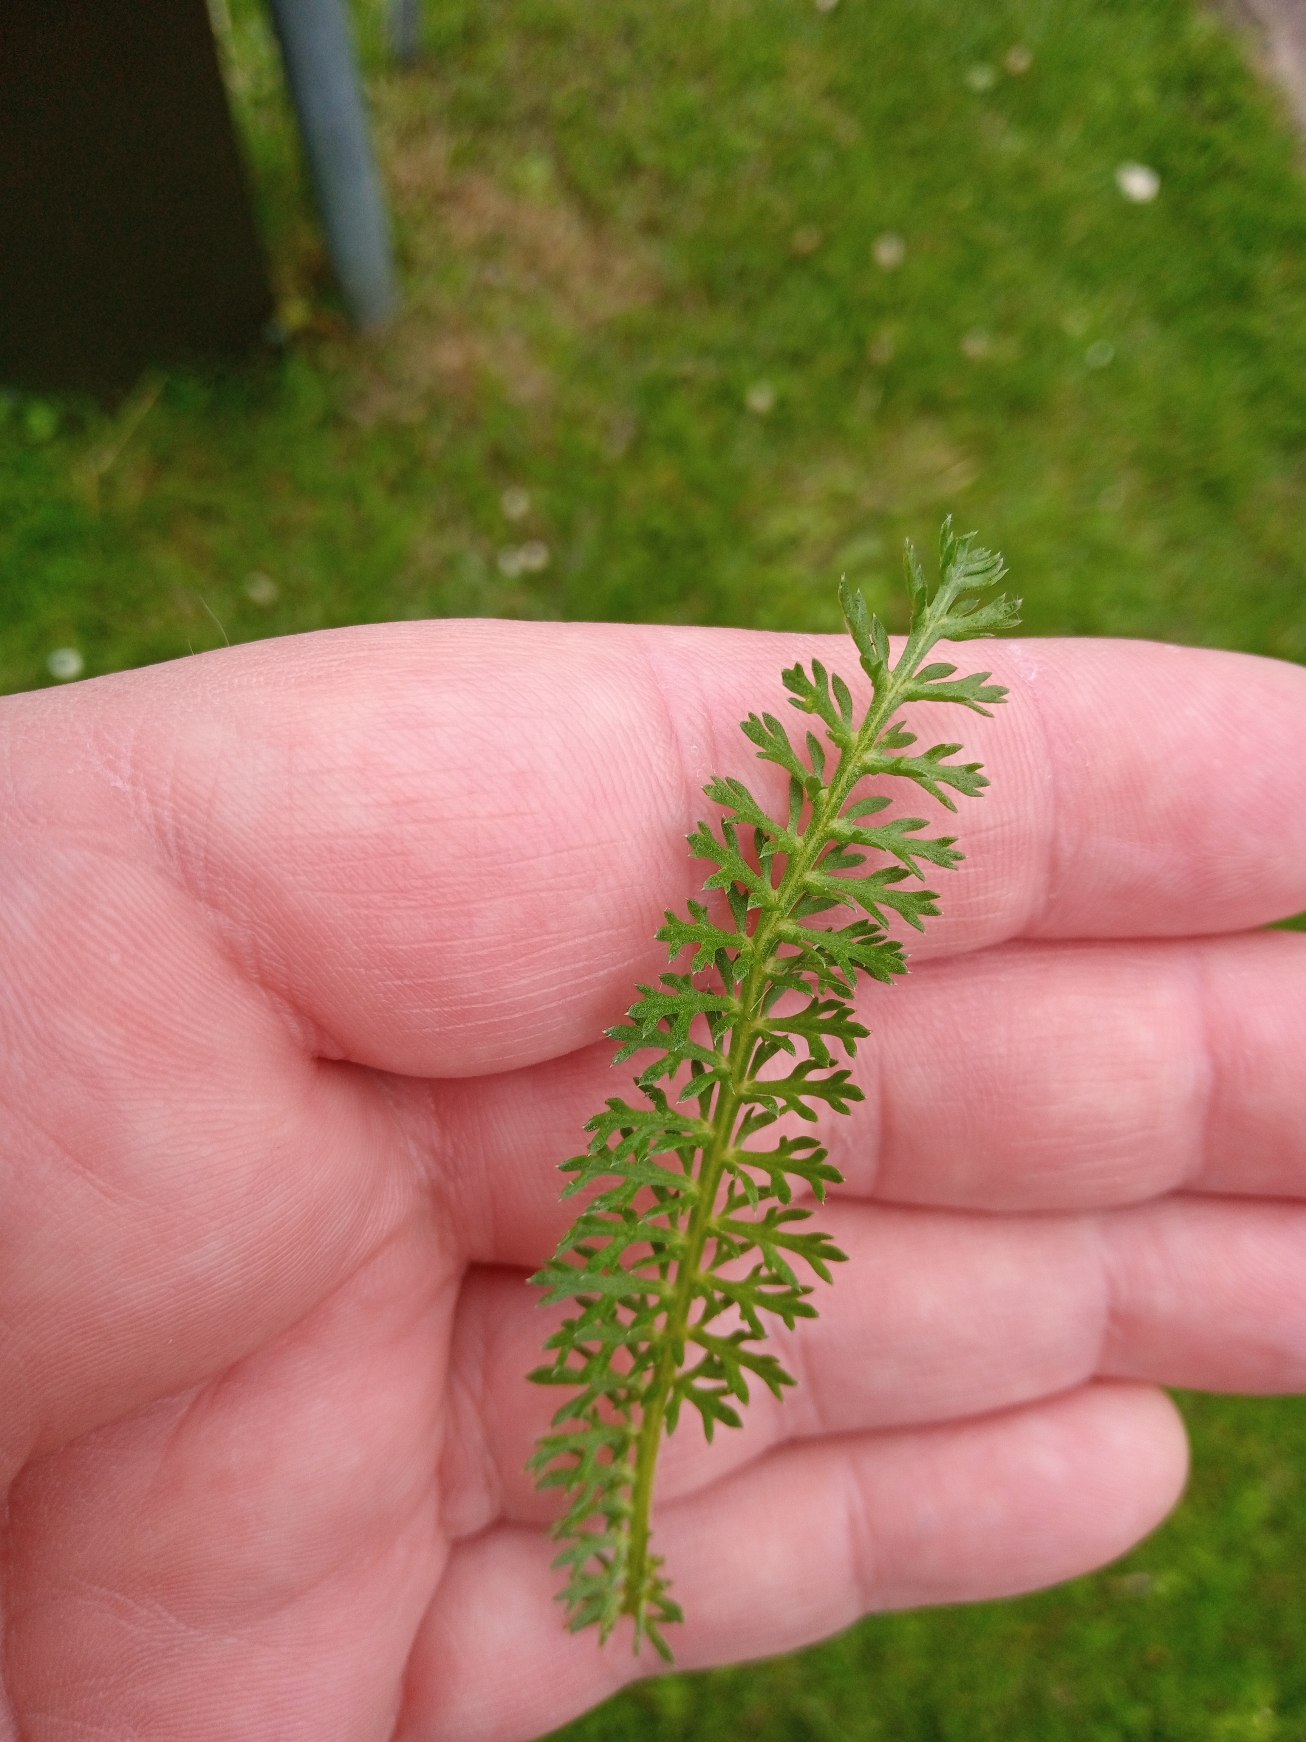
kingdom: Plantae
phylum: Tracheophyta
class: Magnoliopsida
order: Asterales
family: Asteraceae
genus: Achillea
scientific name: Achillea millefolium
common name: Almindelig røllike
